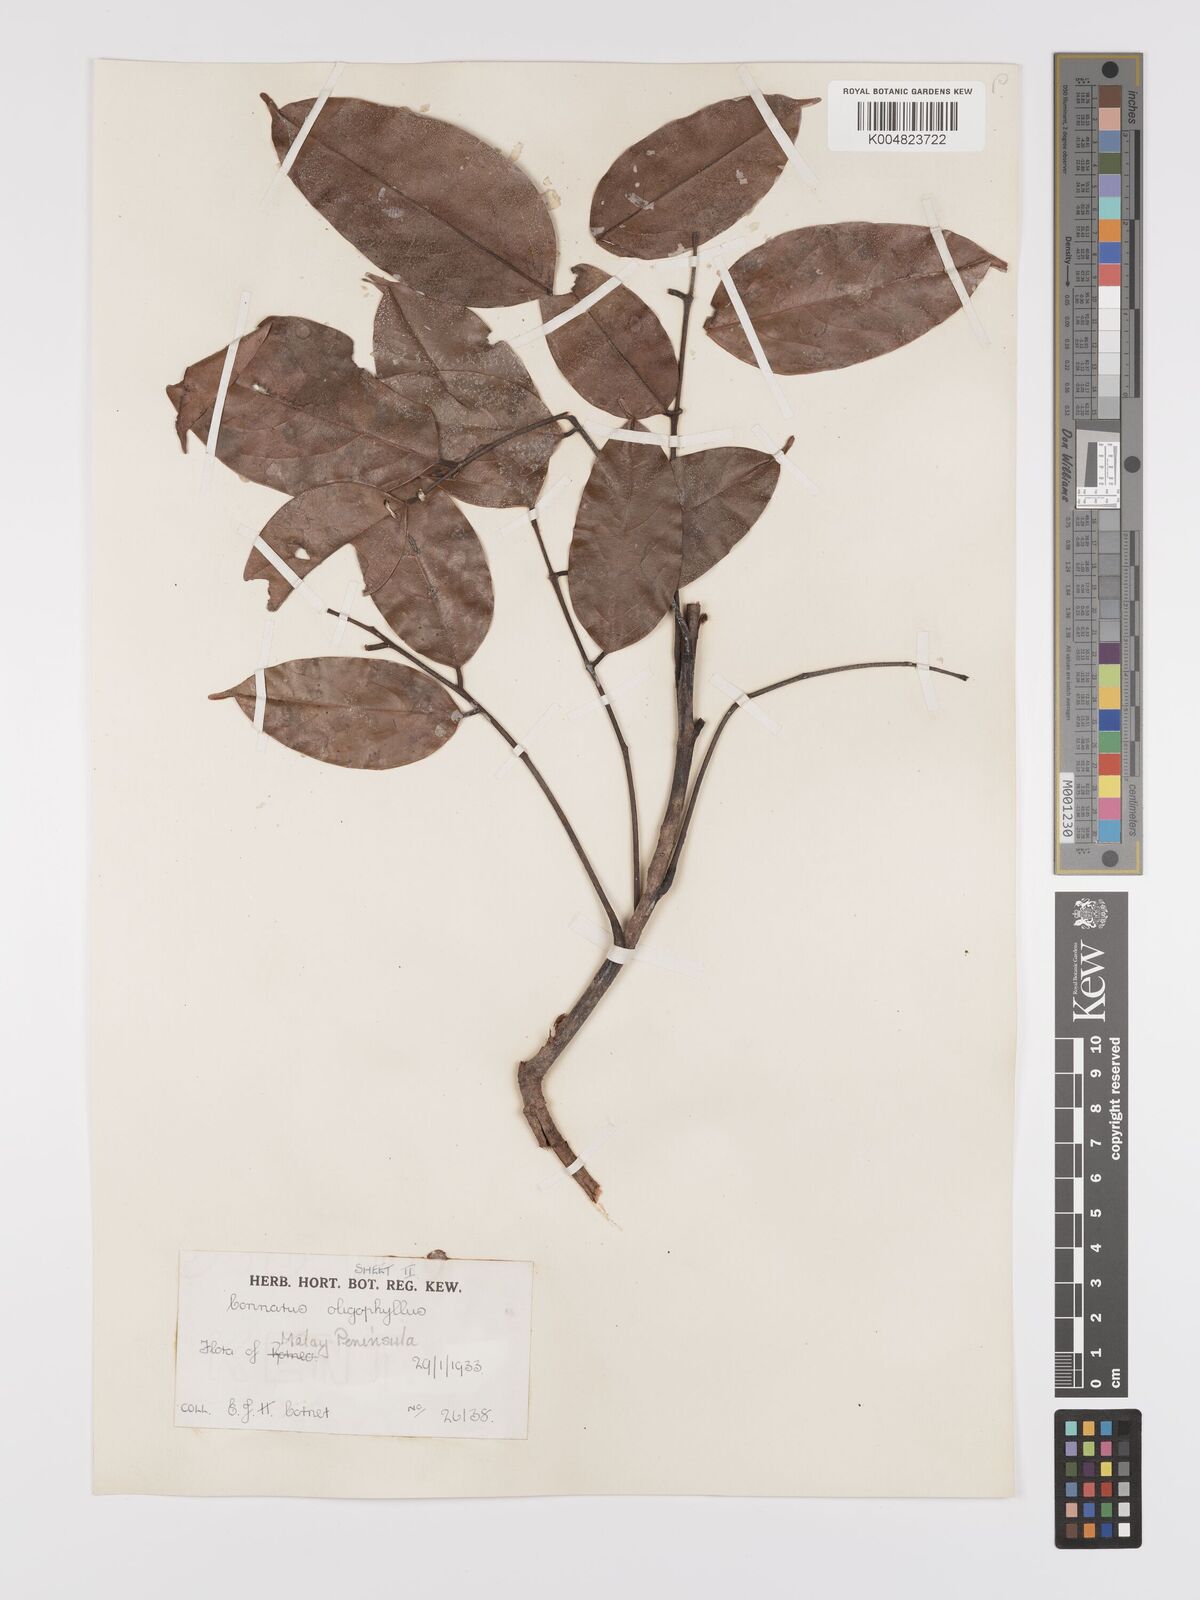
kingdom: Plantae
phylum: Tracheophyta
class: Magnoliopsida
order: Oxalidales
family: Connaraceae
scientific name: Connaraceae
